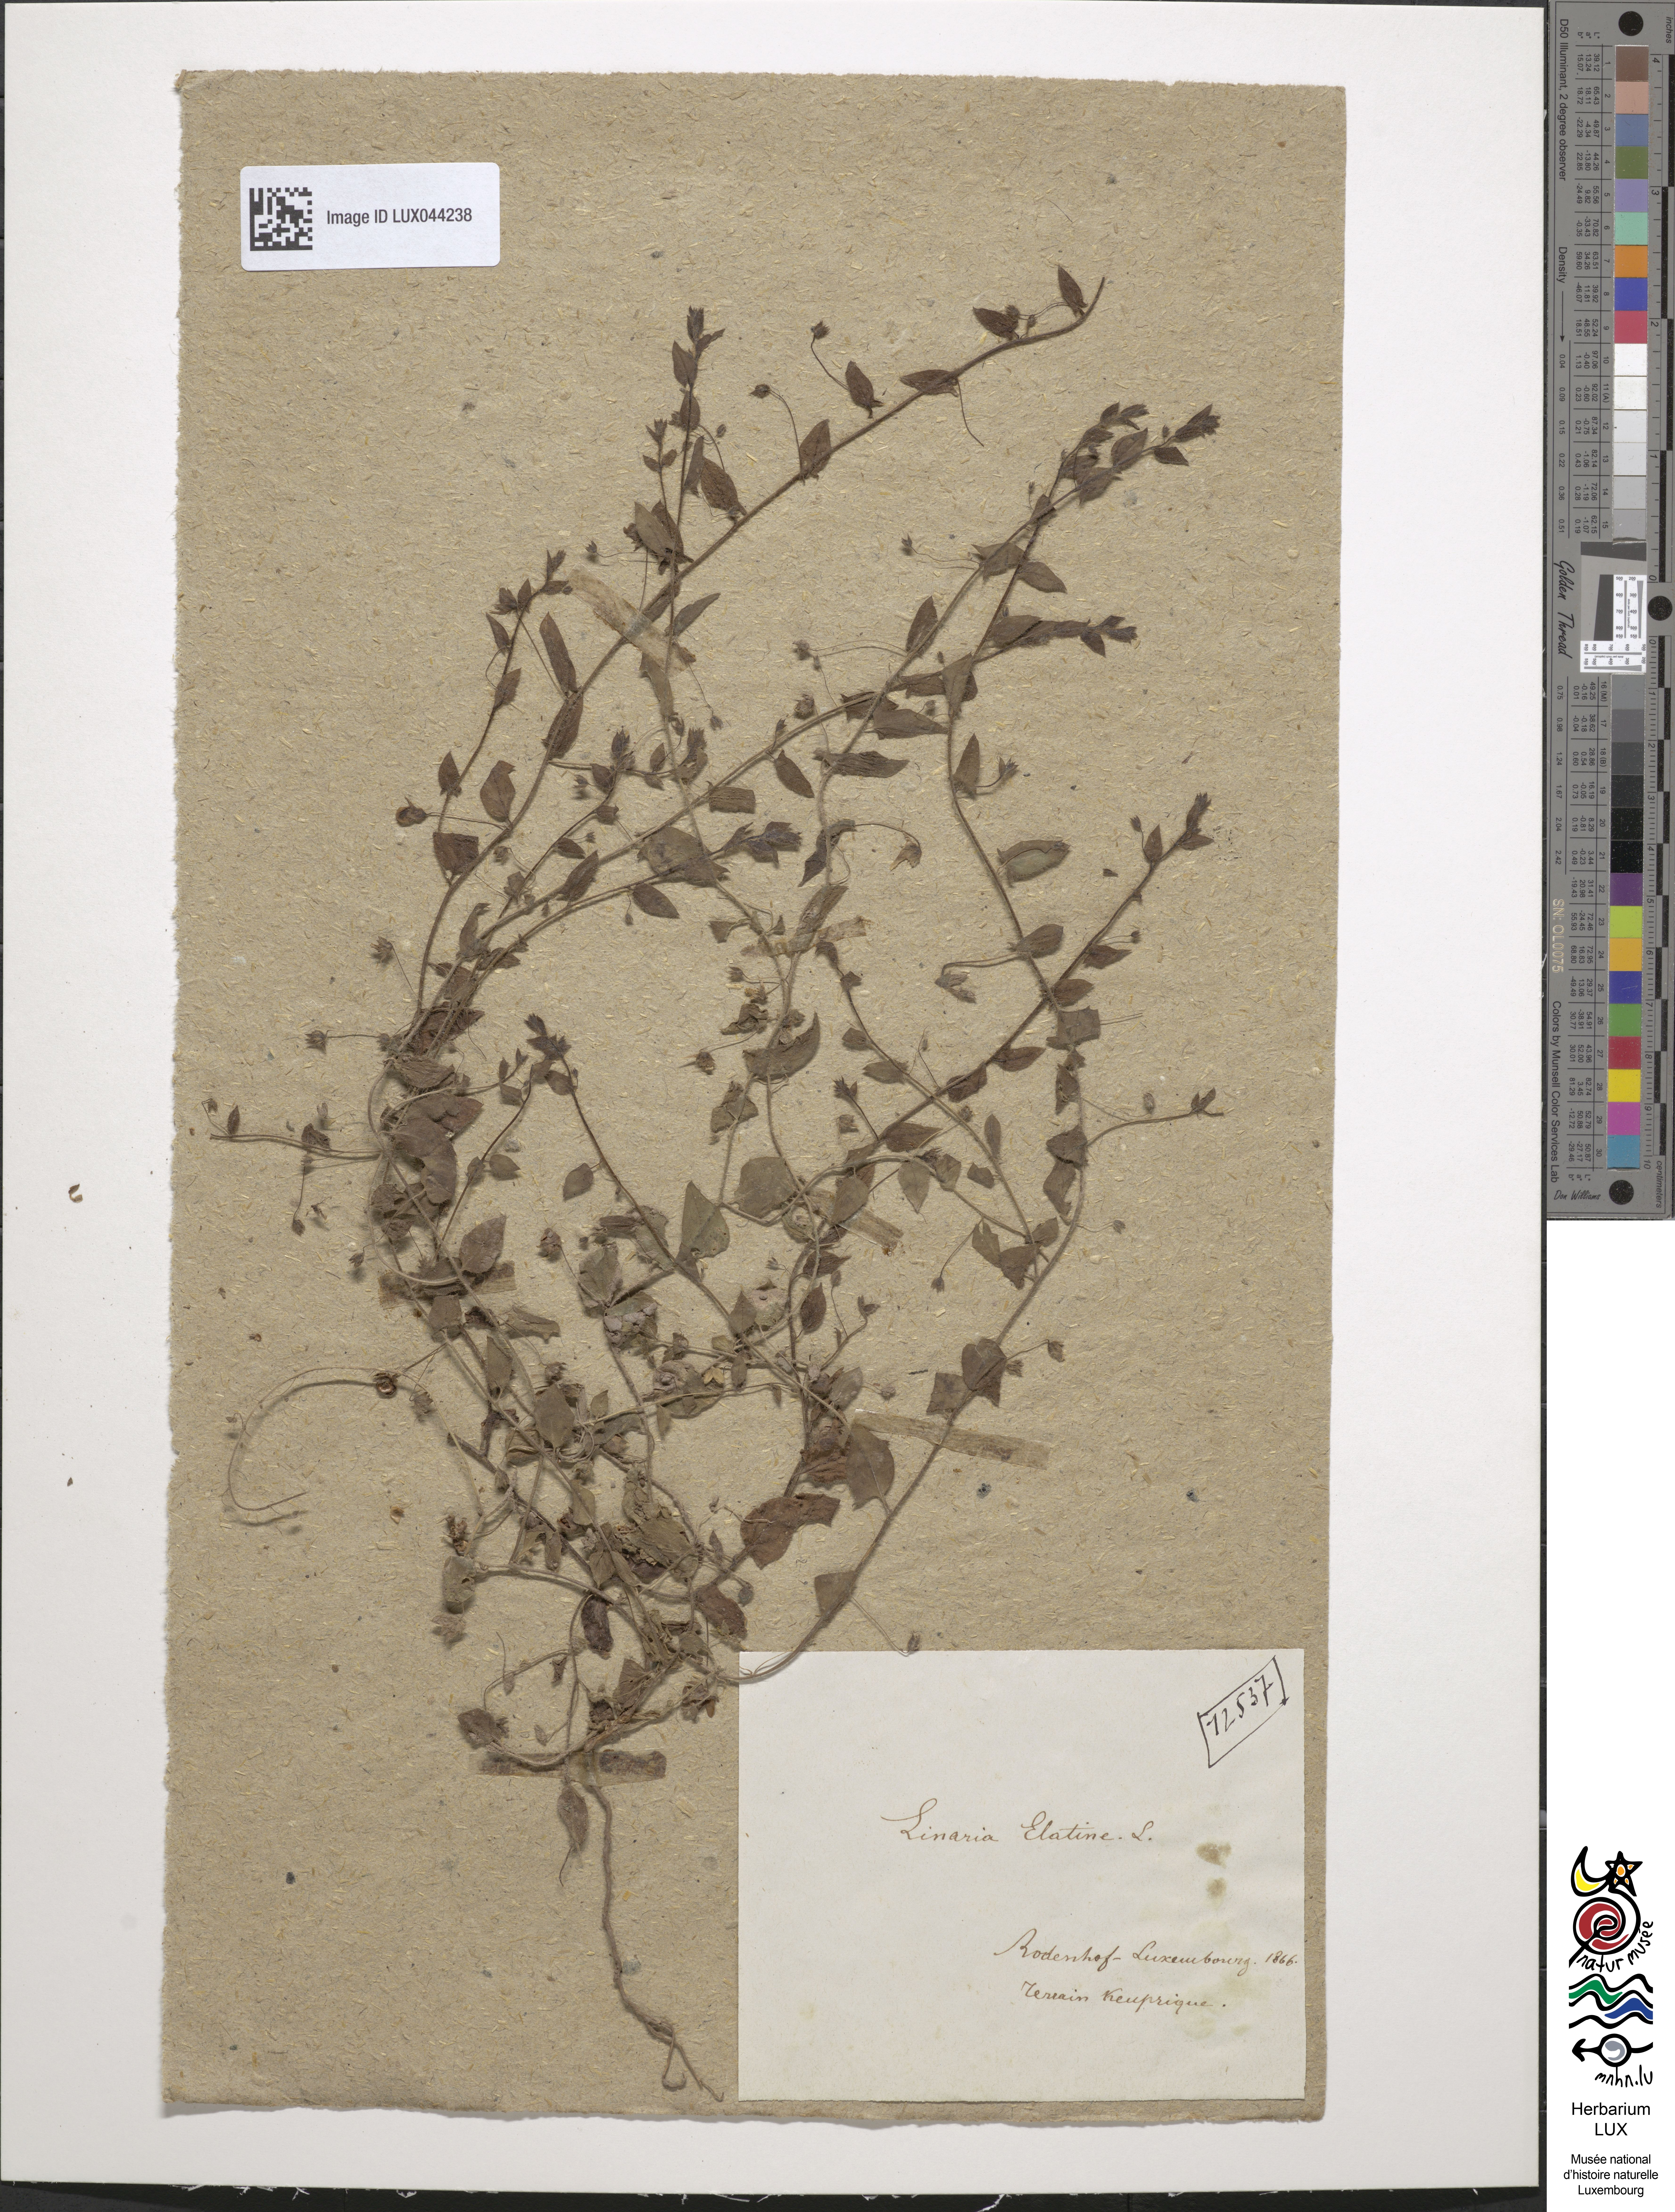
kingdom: Plantae
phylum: Tracheophyta
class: Magnoliopsida
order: Lamiales
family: Plantaginaceae
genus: Kickxia
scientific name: Kickxia elatine
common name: Sharp-leaved fluellen
